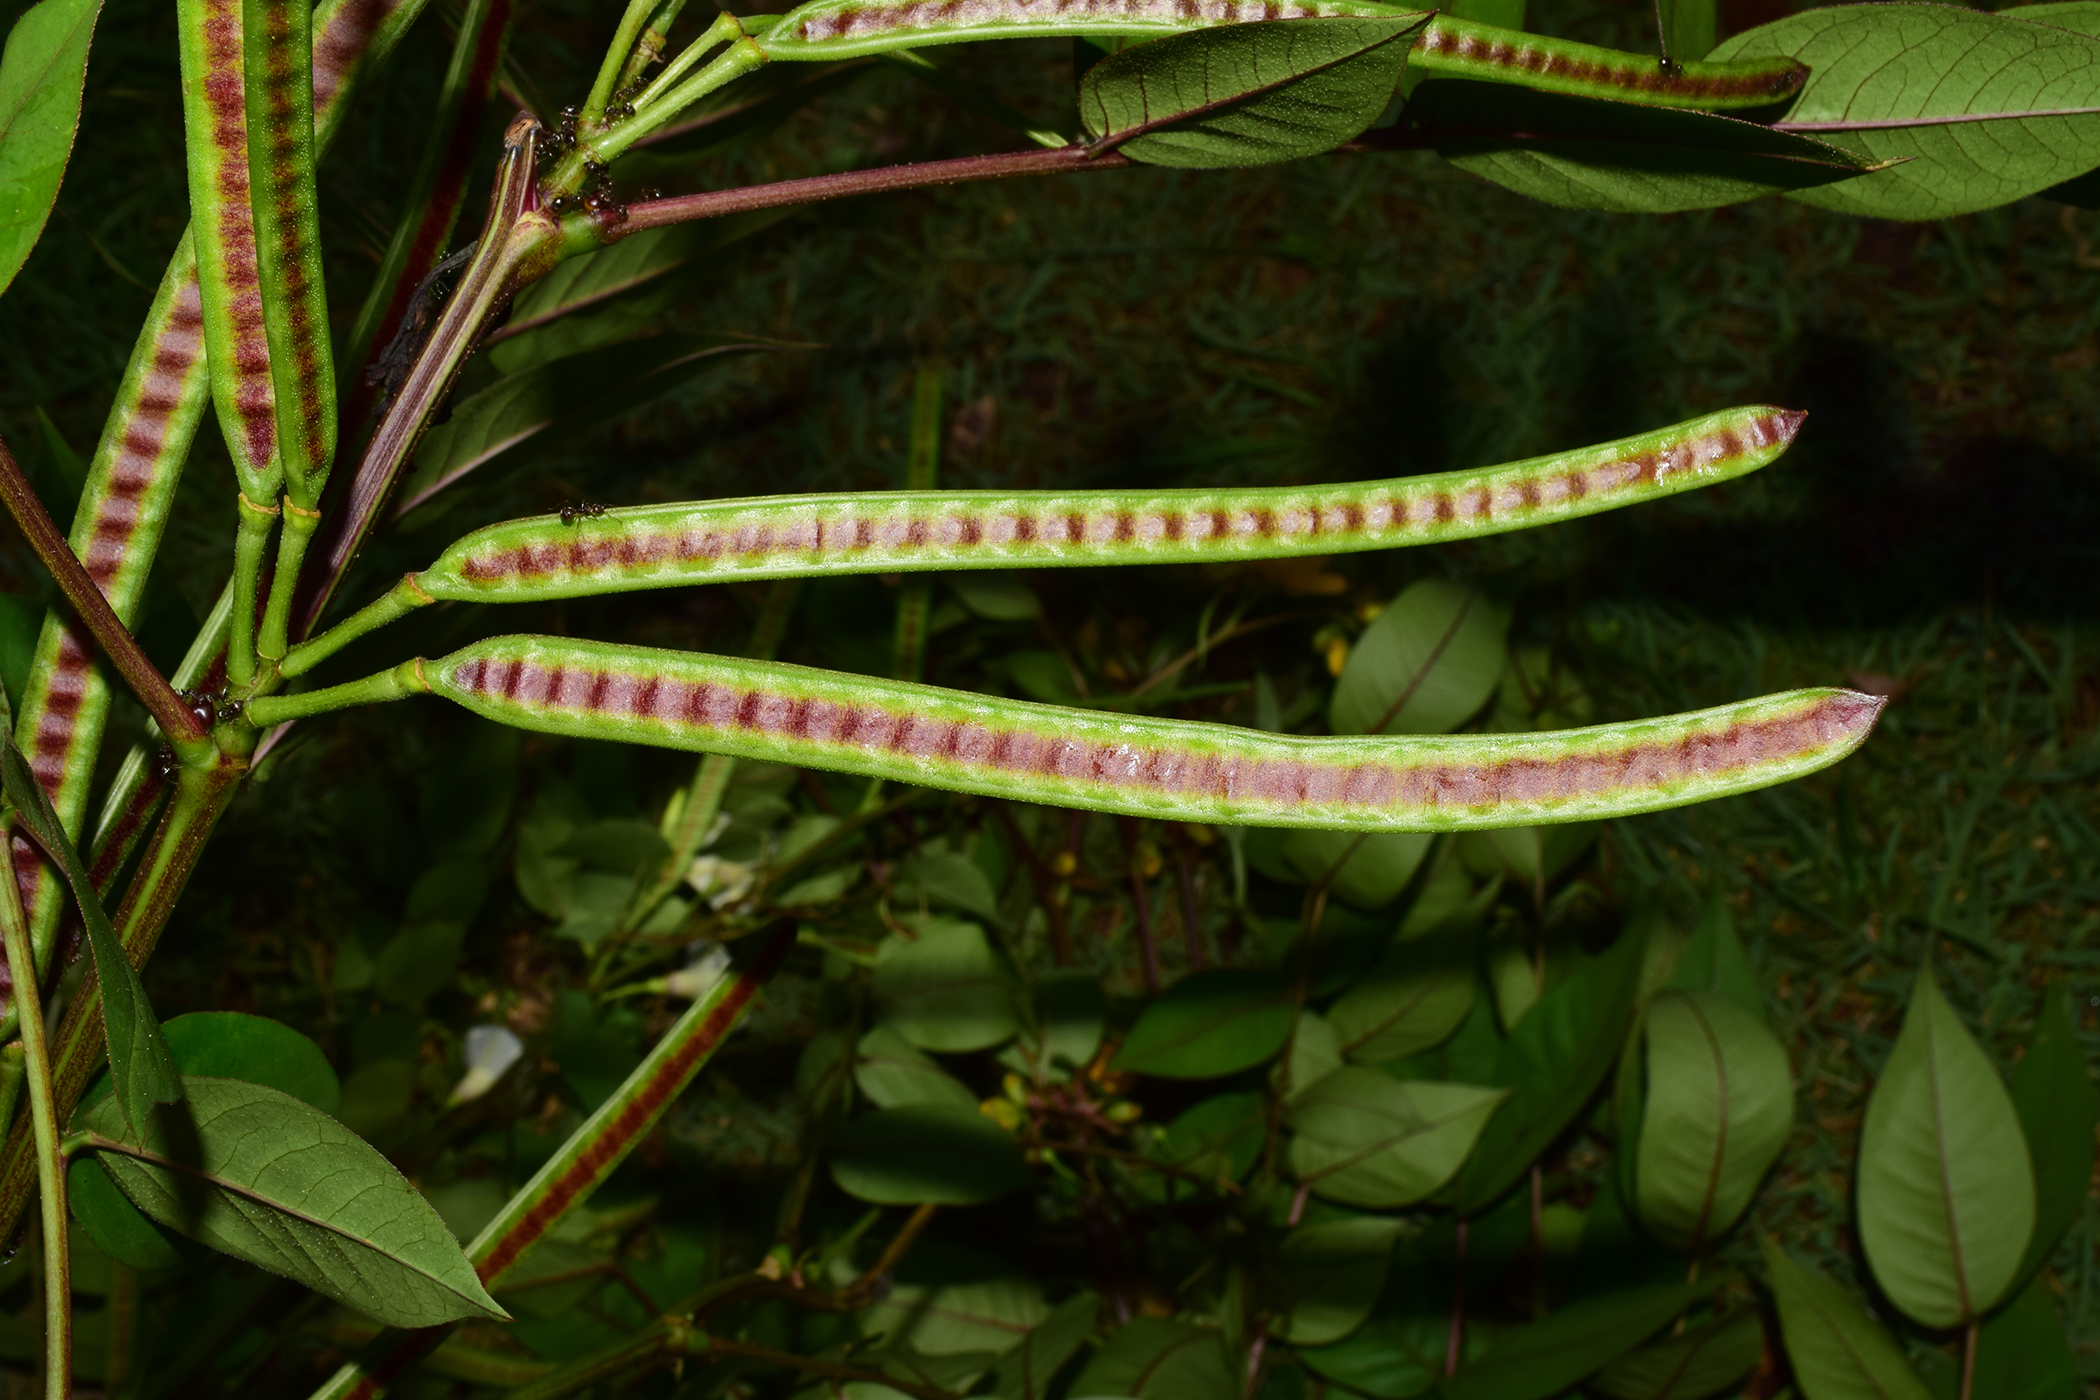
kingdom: Plantae
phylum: Tracheophyta
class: Magnoliopsida
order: Fabales
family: Fabaceae
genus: Senna
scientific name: Senna occidentalis
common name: Septicweed
